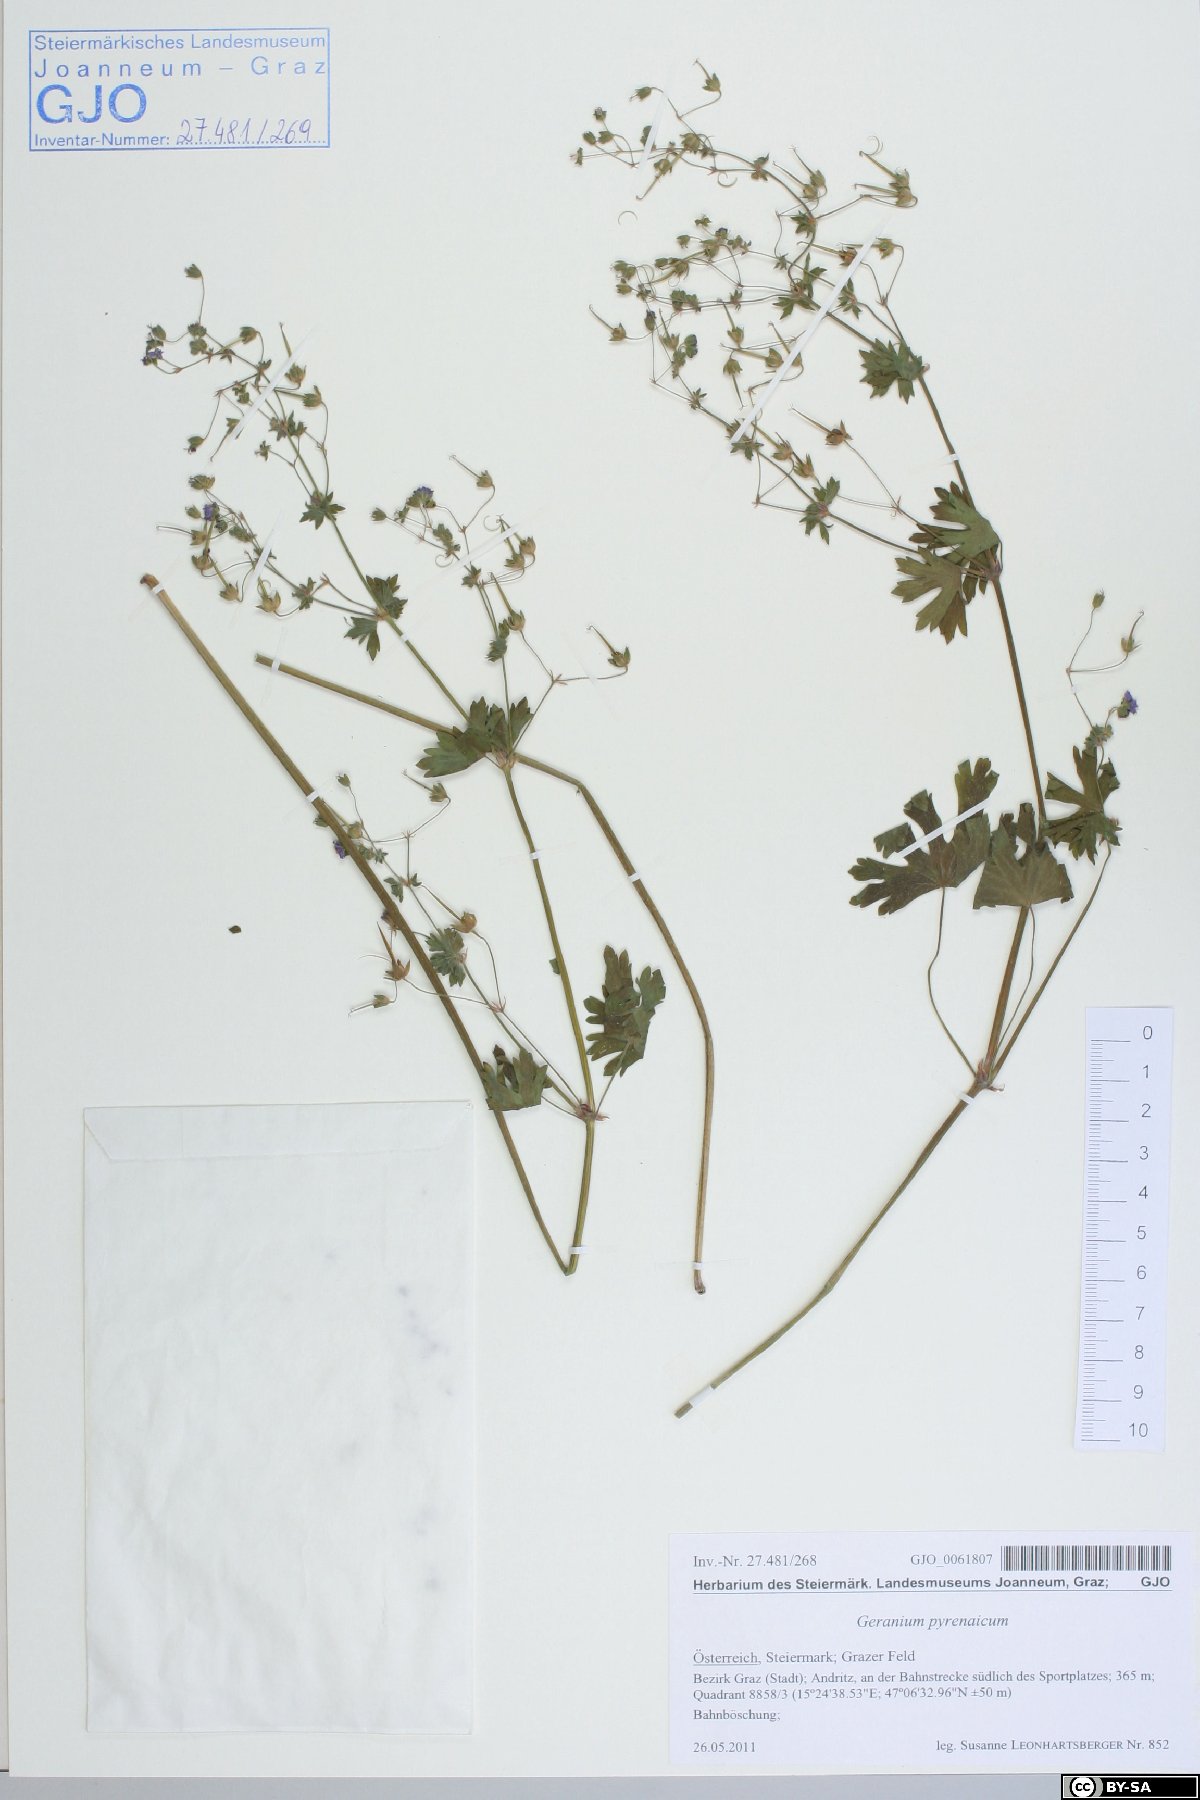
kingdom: Plantae
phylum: Tracheophyta
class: Magnoliopsida
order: Geraniales
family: Geraniaceae
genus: Geranium
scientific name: Geranium pyrenaicum
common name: Hedgerow crane's-bill
